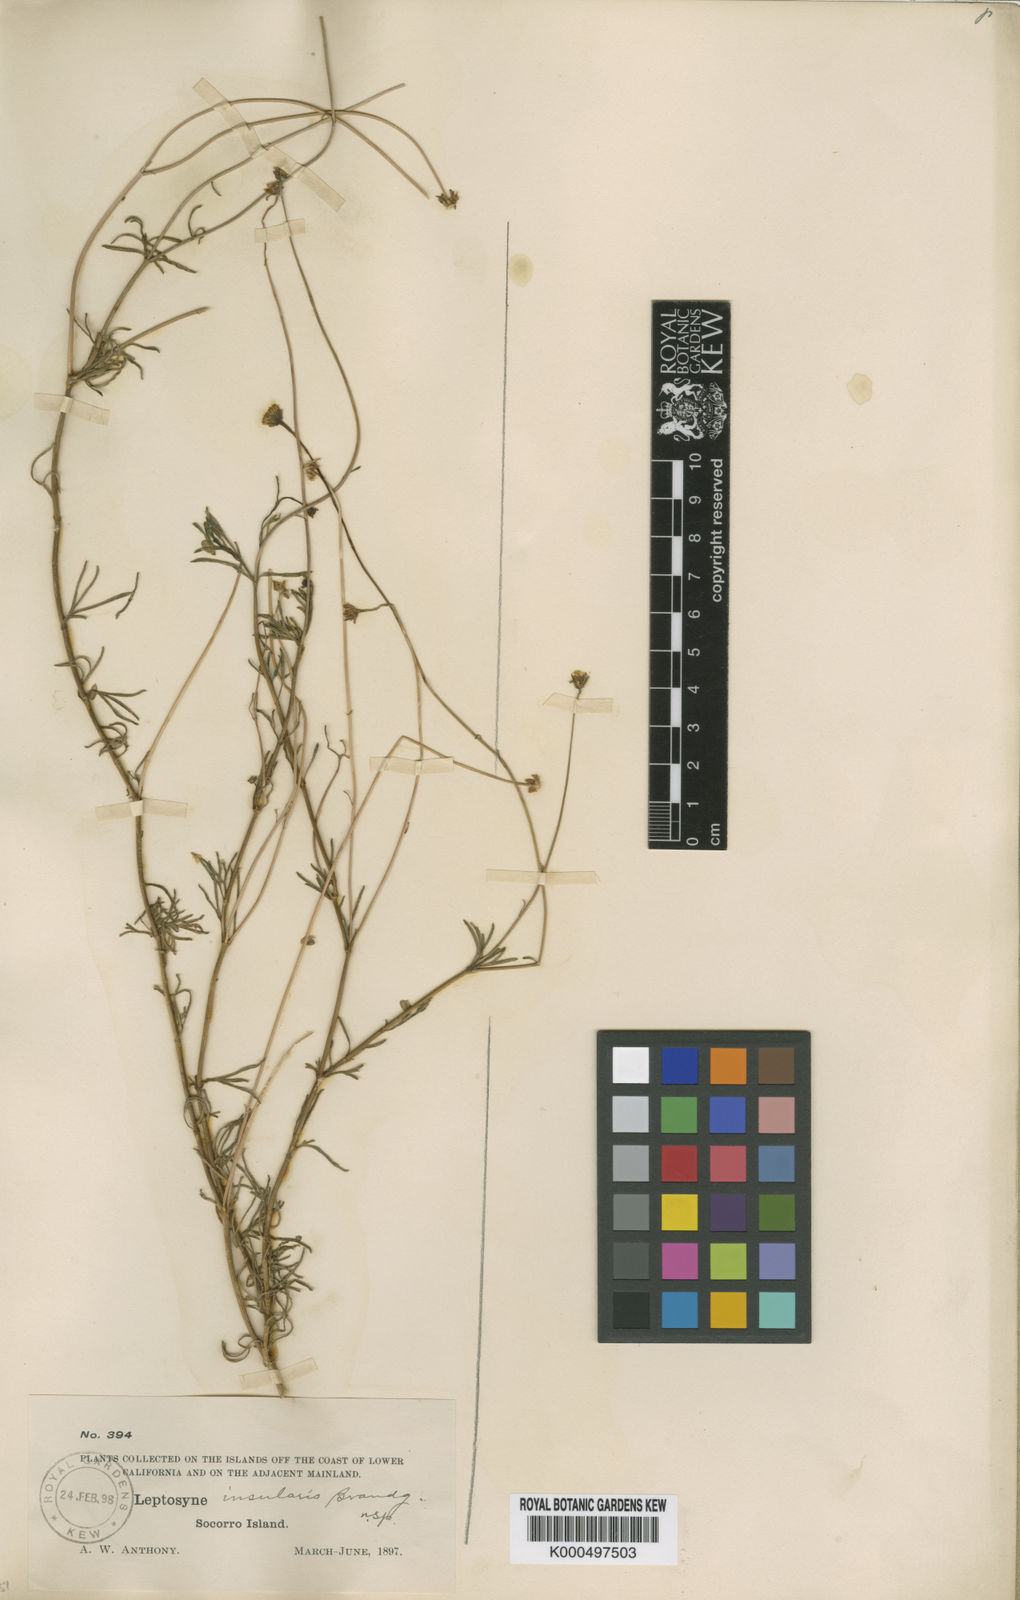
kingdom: Plantae
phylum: Tracheophyta
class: Magnoliopsida
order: Asterales
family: Asteraceae
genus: Coreocarpus
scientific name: Coreocarpus insularis
